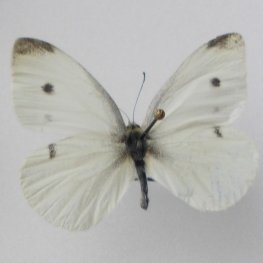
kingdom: Animalia
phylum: Arthropoda
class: Insecta
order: Lepidoptera
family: Pieridae
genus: Pieris
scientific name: Pieris rapae
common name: Cabbage White
